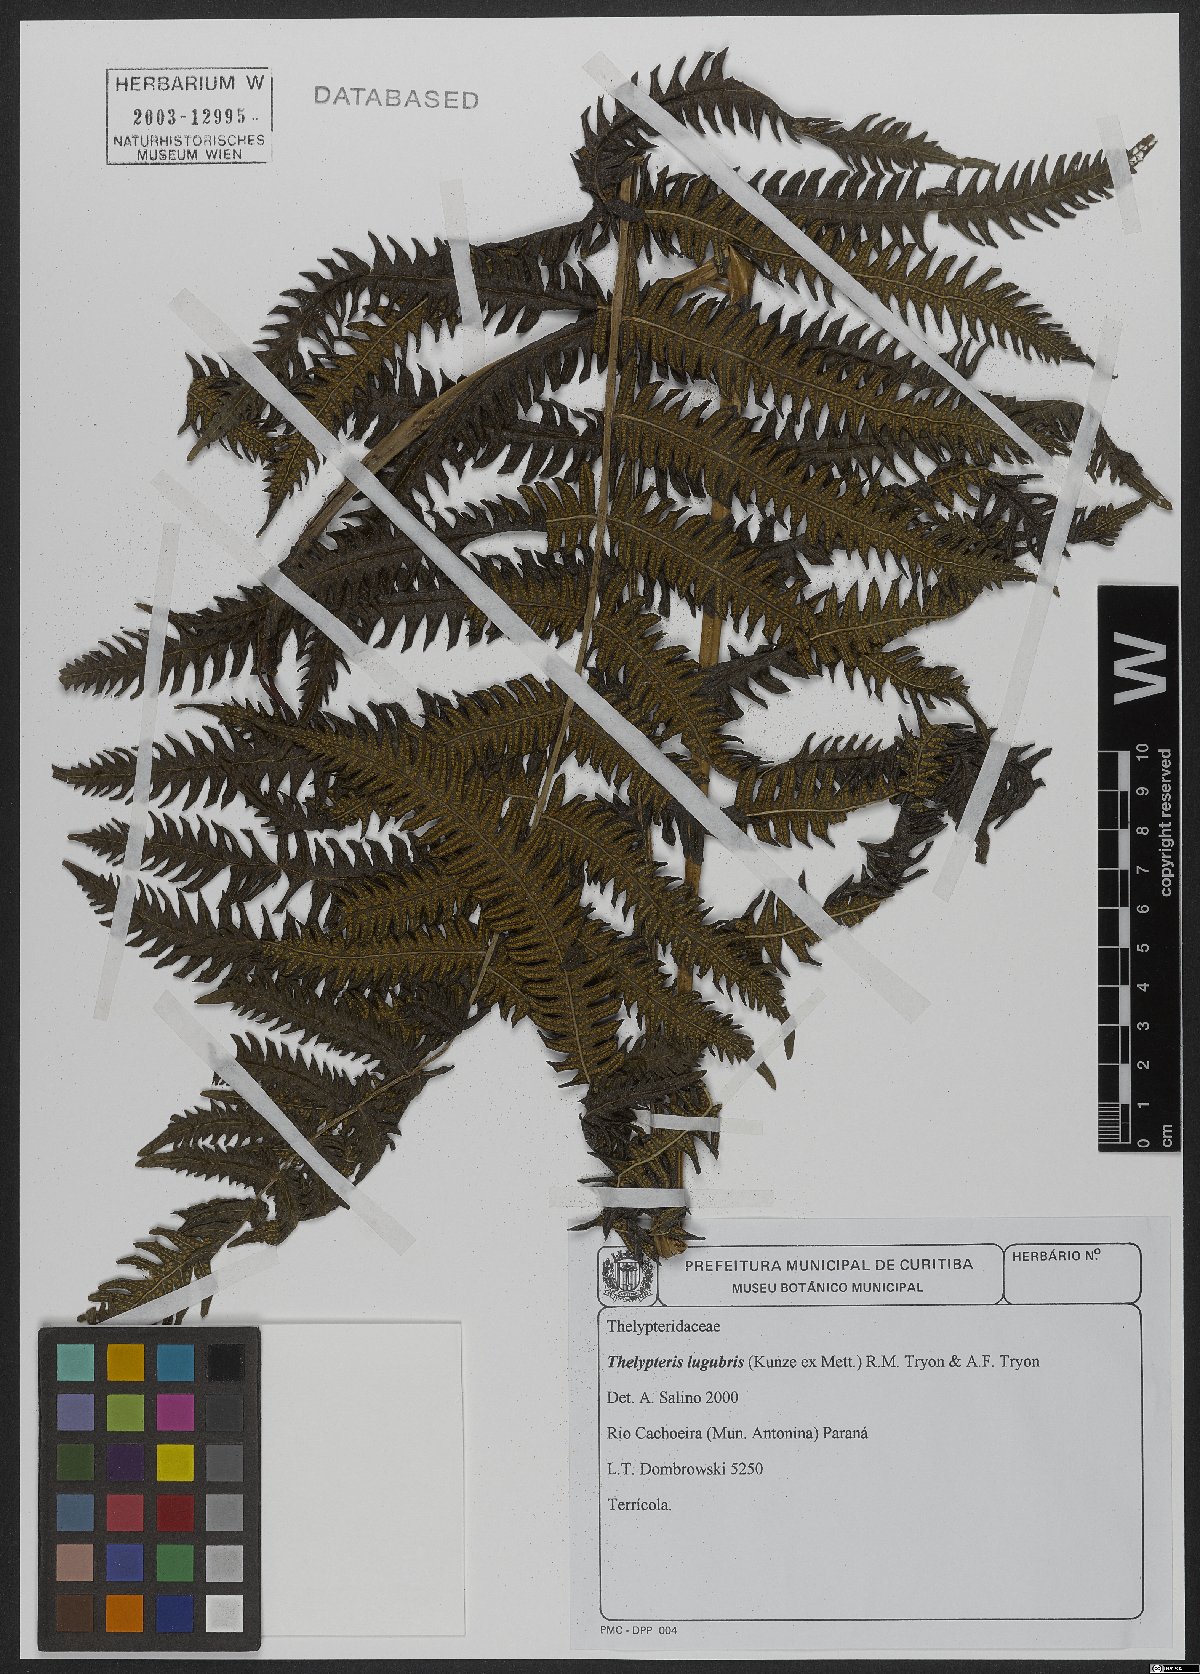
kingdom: Plantae
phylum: Tracheophyta
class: Polypodiopsida
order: Polypodiales
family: Thelypteridaceae
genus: Goniopteris
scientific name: Goniopteris lugubris
